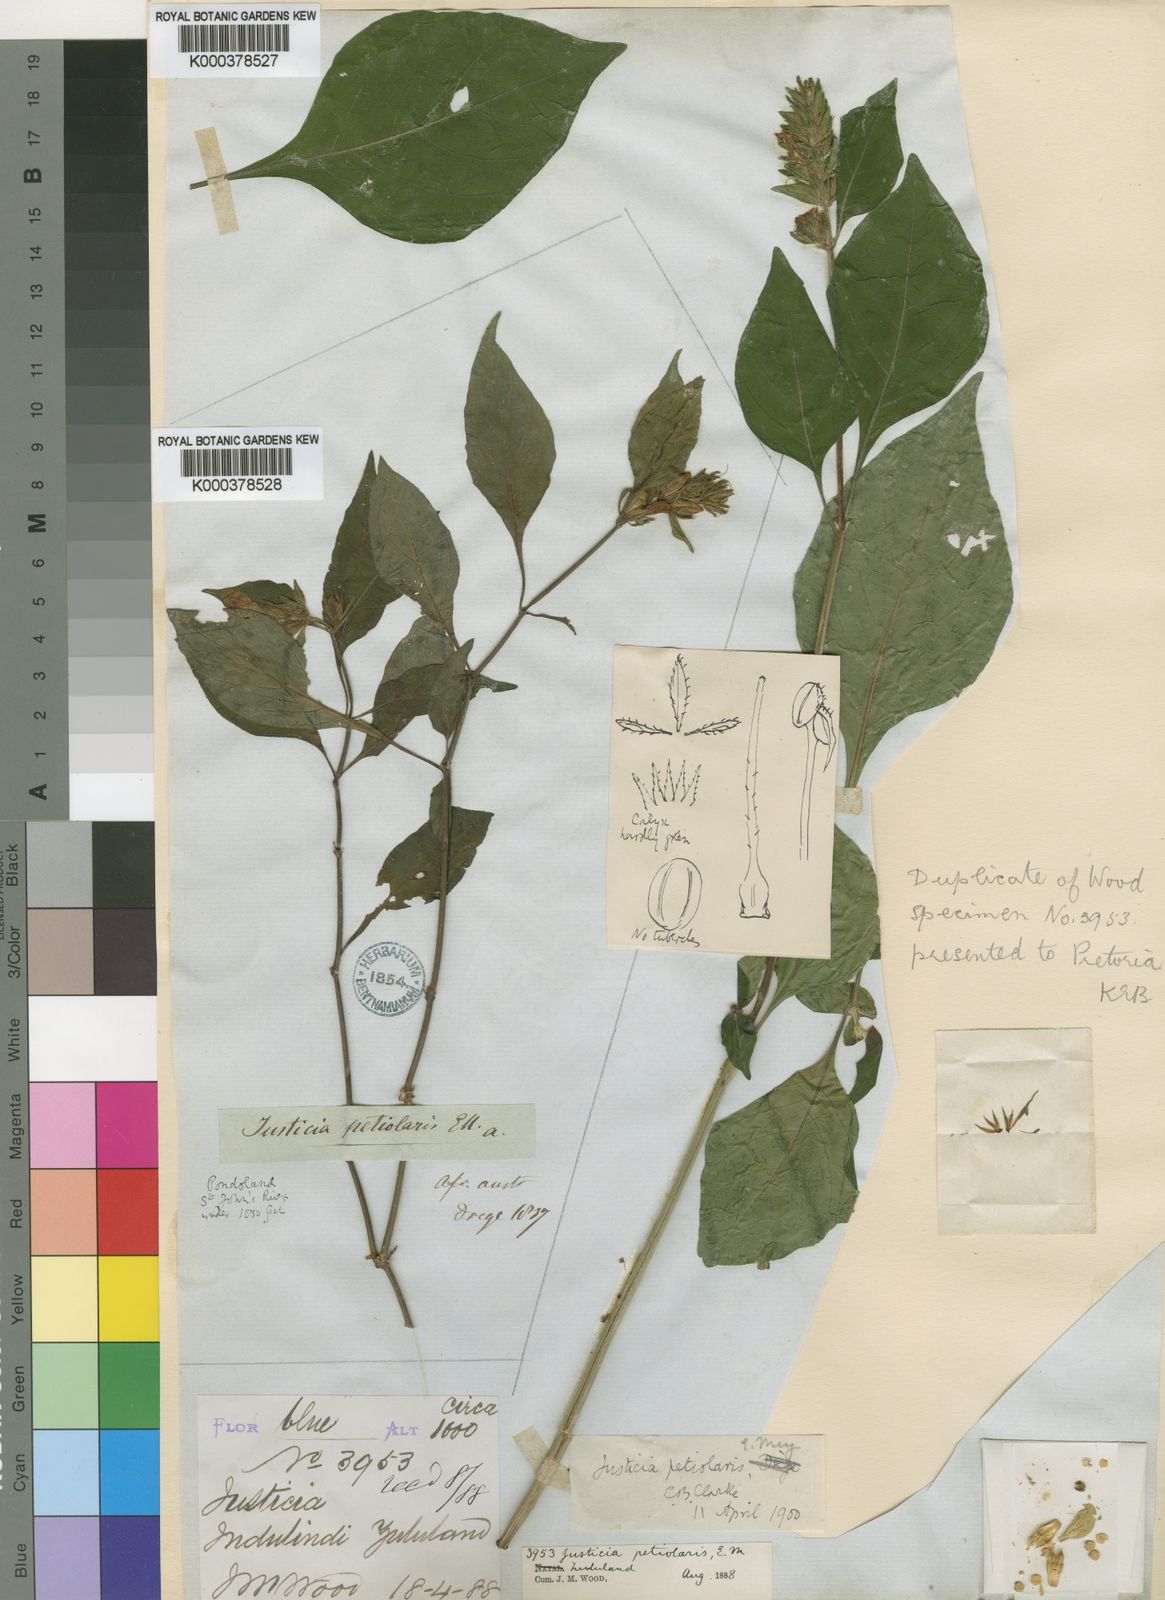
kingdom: Plantae
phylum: Tracheophyta
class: Magnoliopsida
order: Lamiales
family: Acanthaceae
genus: Justicia
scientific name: Justicia
